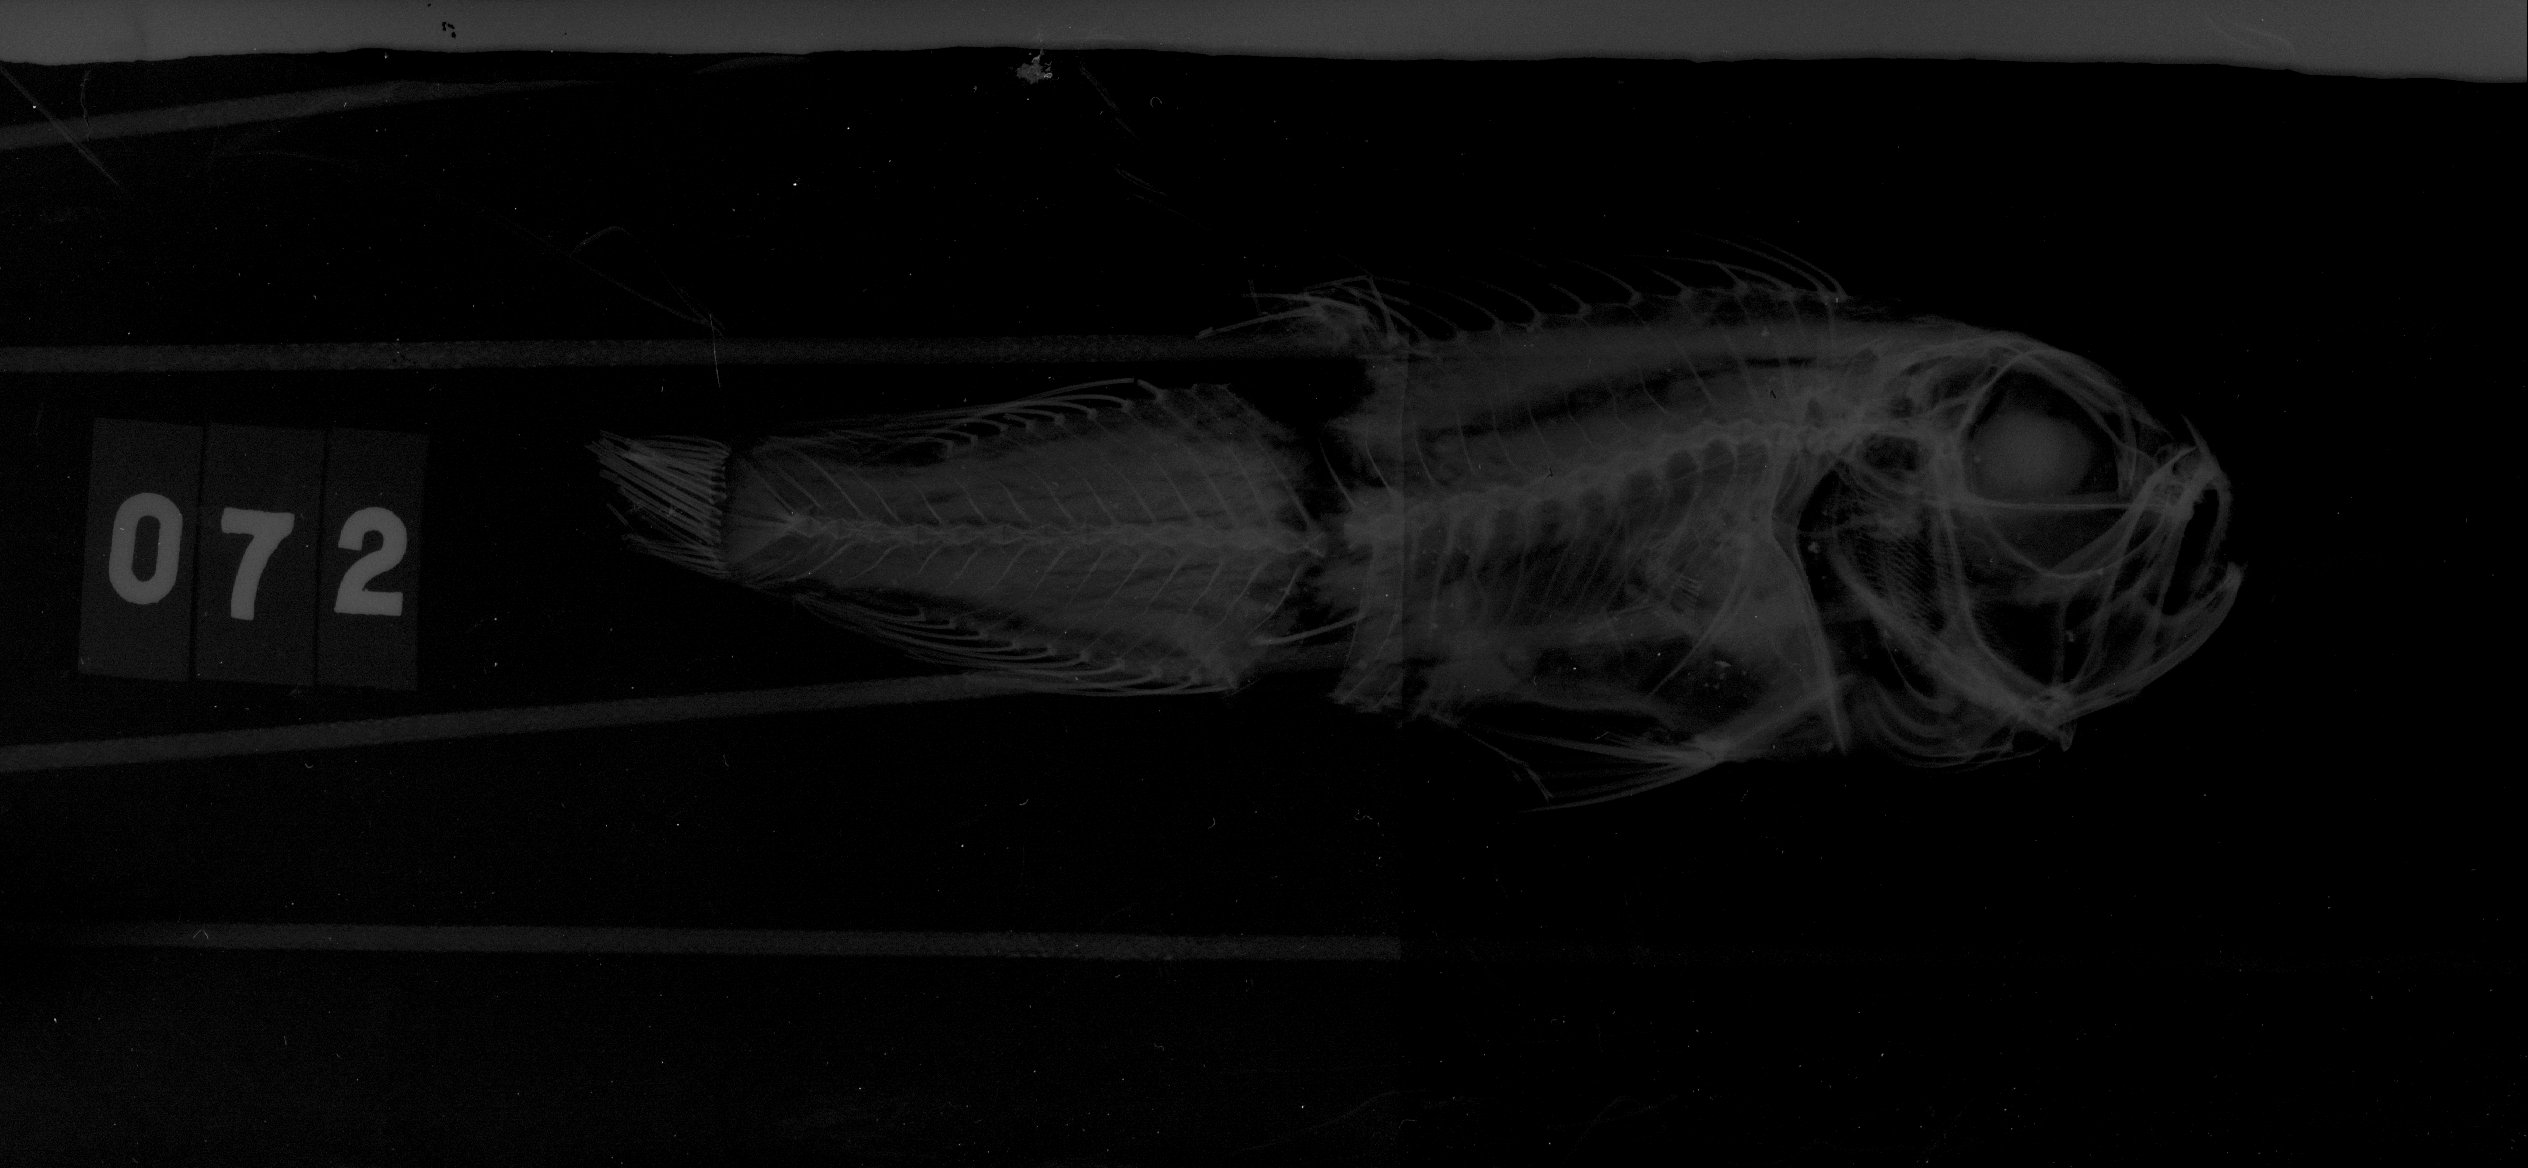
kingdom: Animalia
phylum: Chordata
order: Perciformes
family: Cepolidae
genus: Owstonia
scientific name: Owstonia weberi
